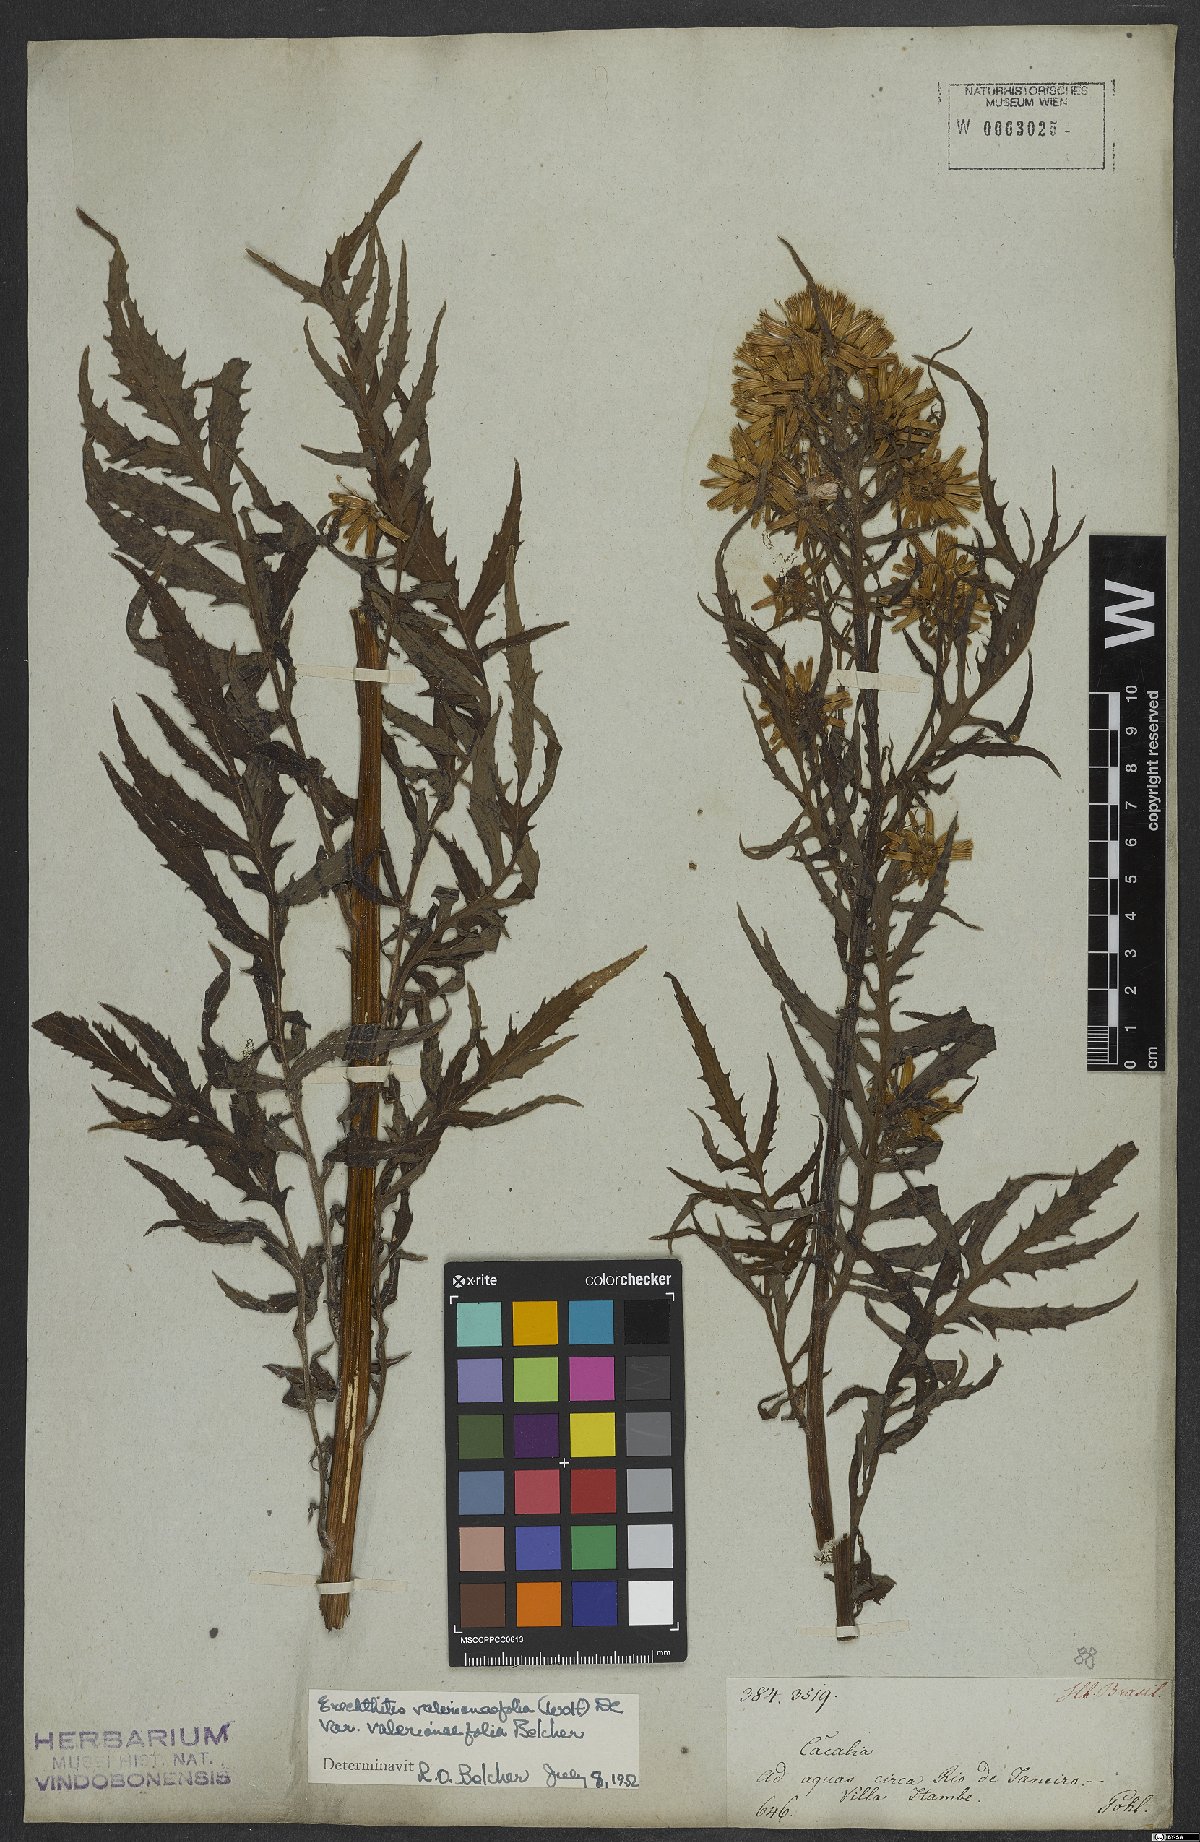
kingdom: Plantae
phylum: Tracheophyta
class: Magnoliopsida
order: Asterales
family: Asteraceae
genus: Erechtites
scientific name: Erechtites valerianifolius
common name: Tropical burnweed
